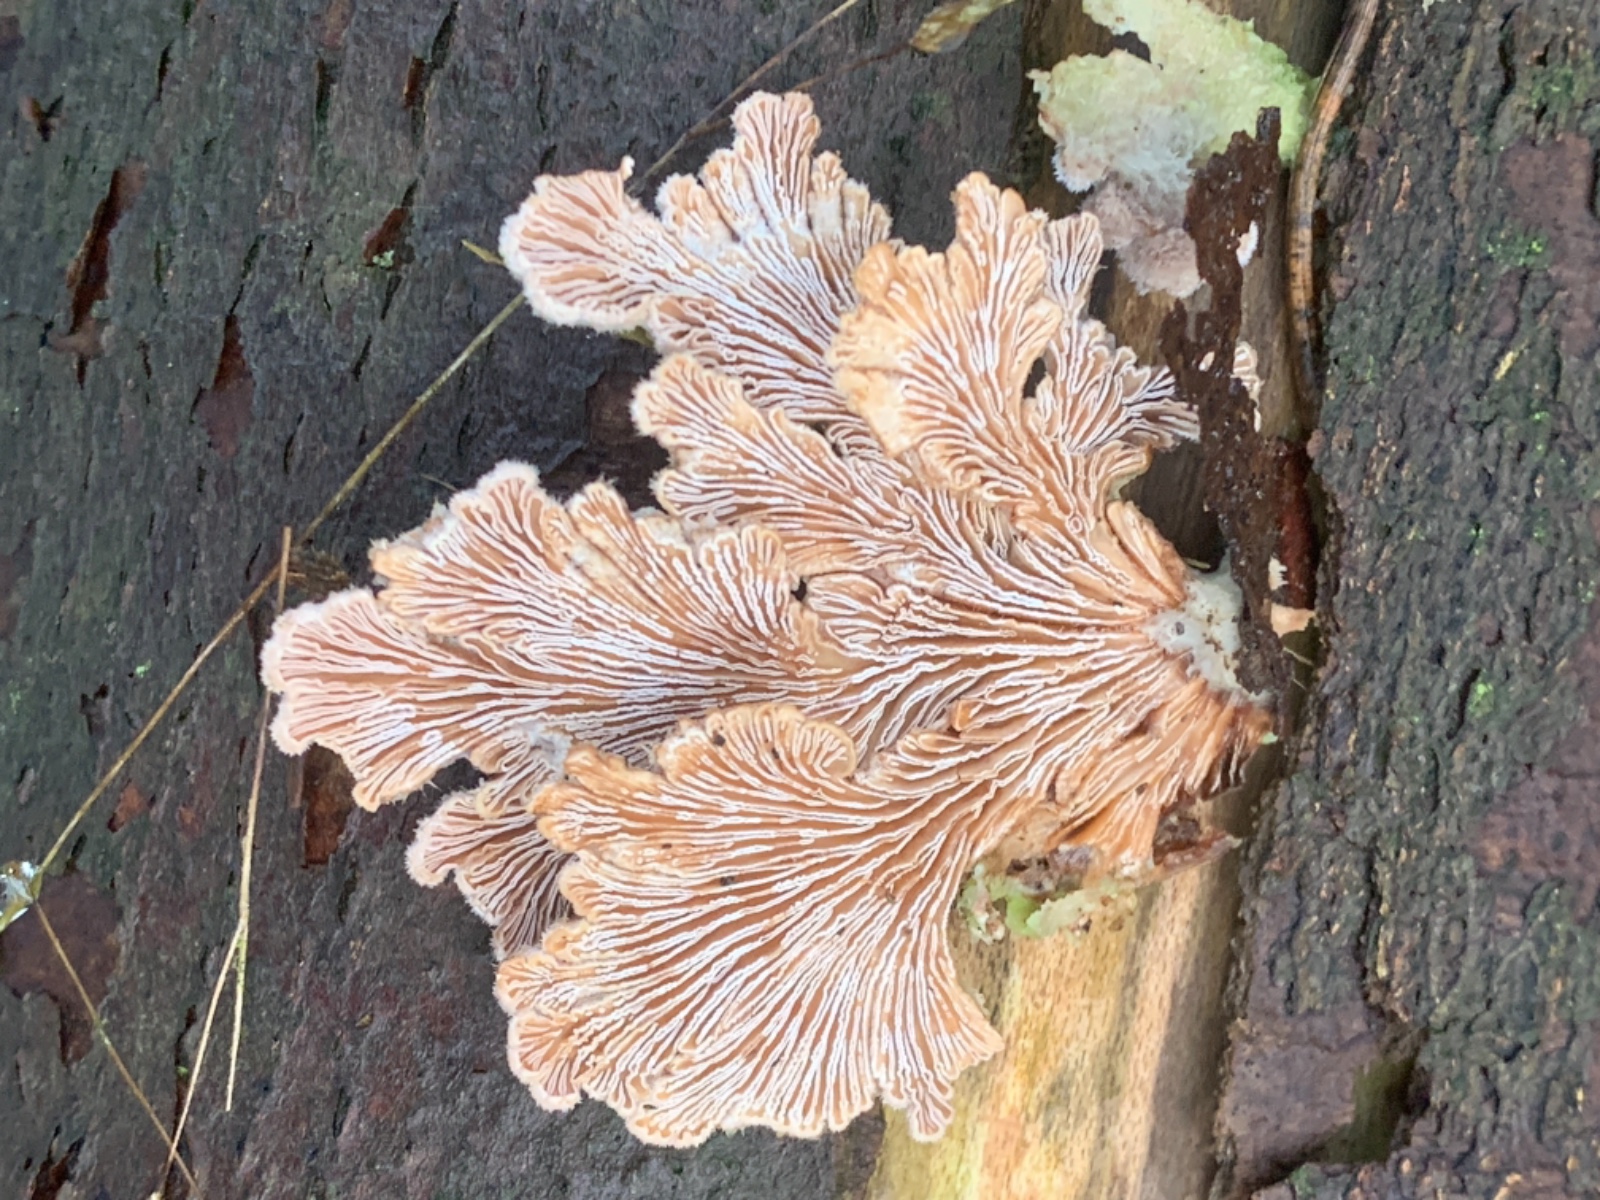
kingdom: Fungi
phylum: Basidiomycota
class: Agaricomycetes
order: Agaricales
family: Schizophyllaceae
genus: Schizophyllum
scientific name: Schizophyllum commune
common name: kløvblad
